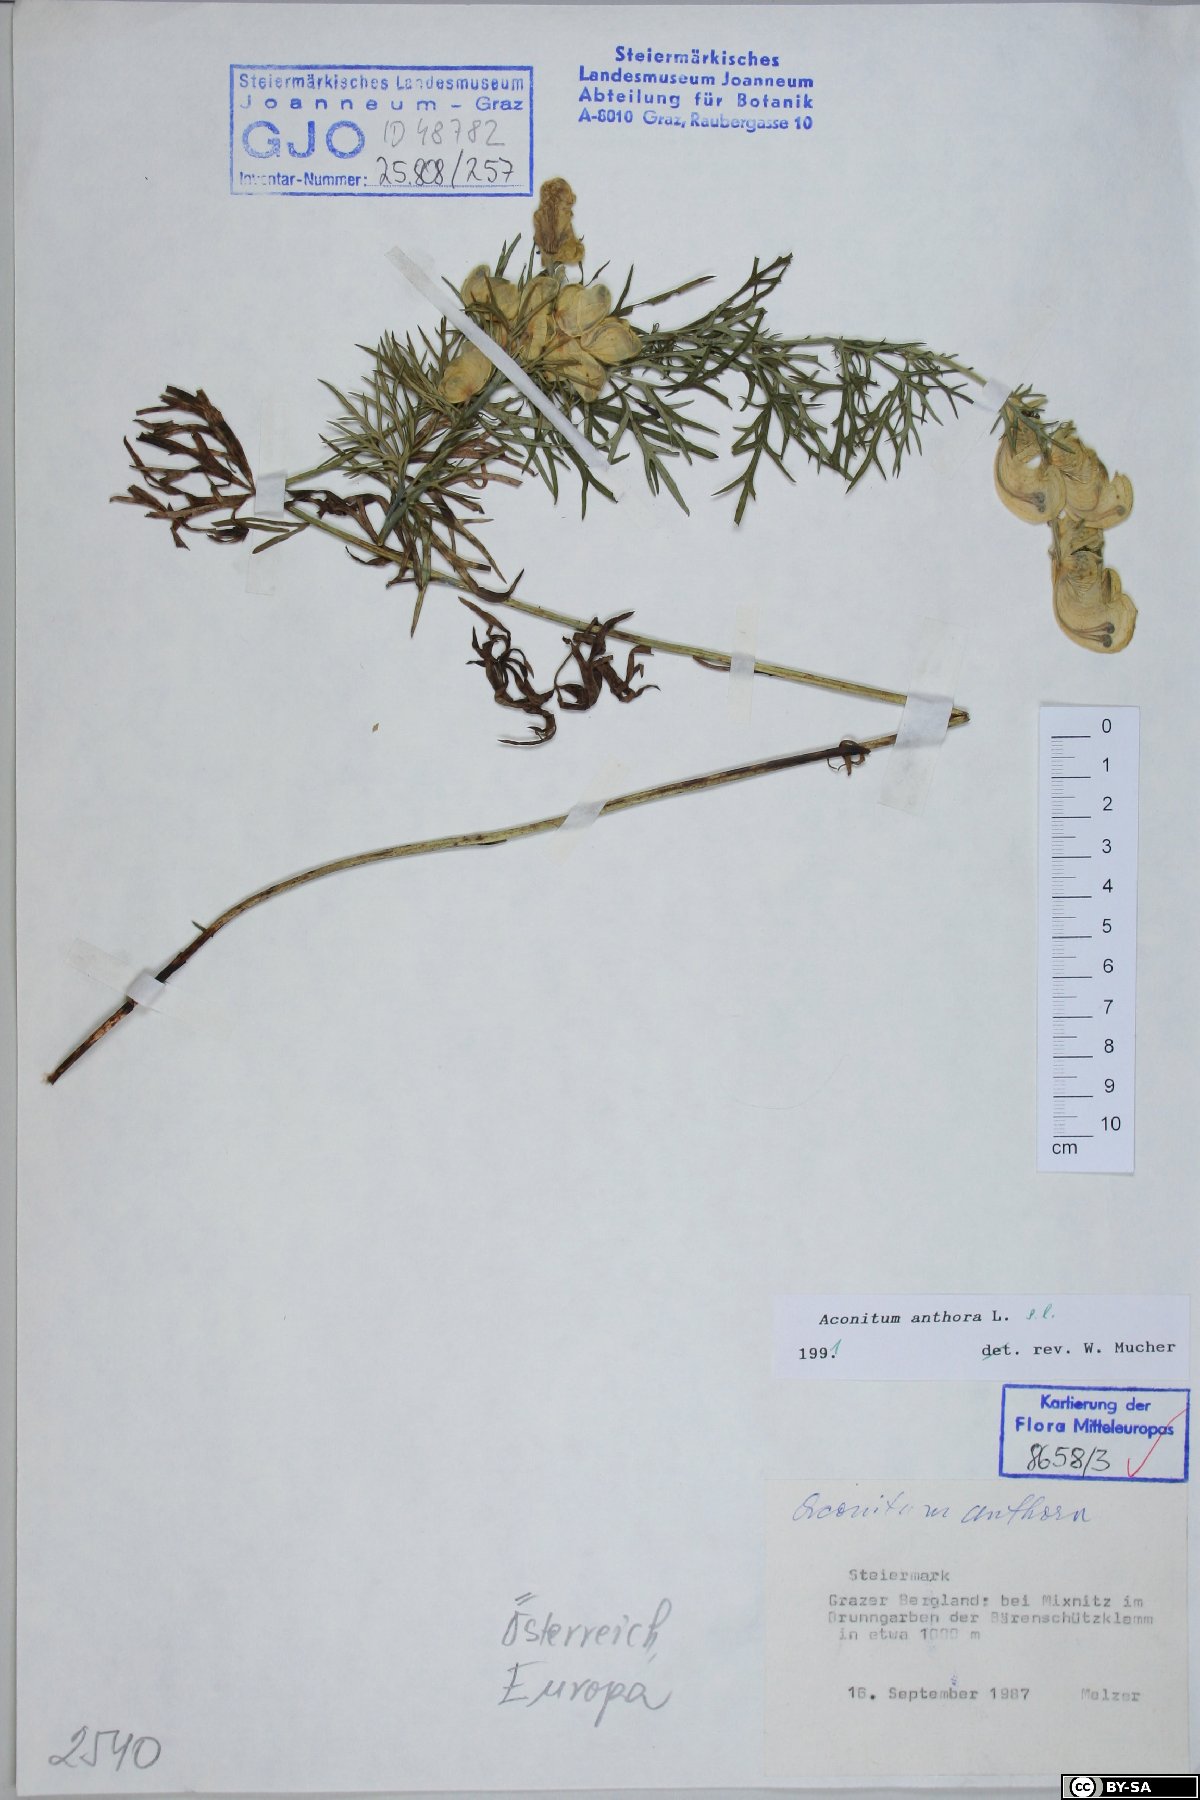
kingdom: Plantae
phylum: Tracheophyta
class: Magnoliopsida
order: Ranunculales
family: Ranunculaceae
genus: Aconitum
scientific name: Aconitum anthora
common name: Yellow monkshood
